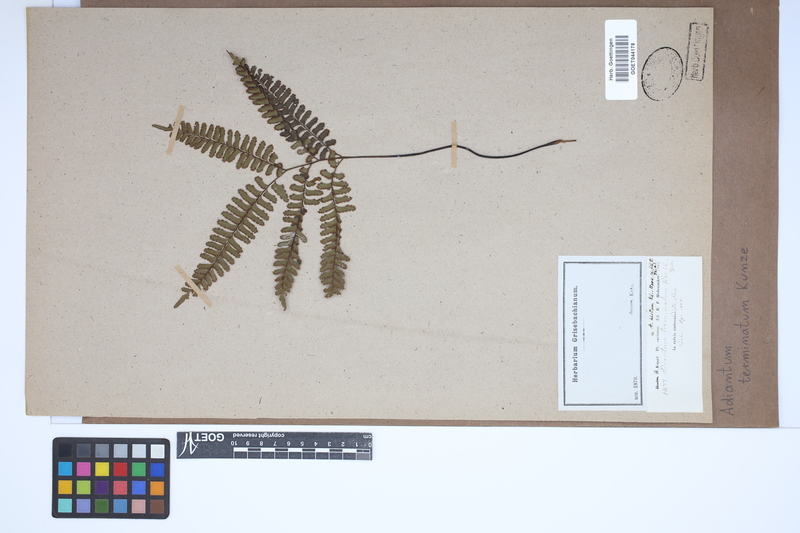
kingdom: Plantae
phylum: Tracheophyta
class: Polypodiopsida
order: Polypodiales
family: Pteridaceae
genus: Adiantum
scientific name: Adiantum terminatum
